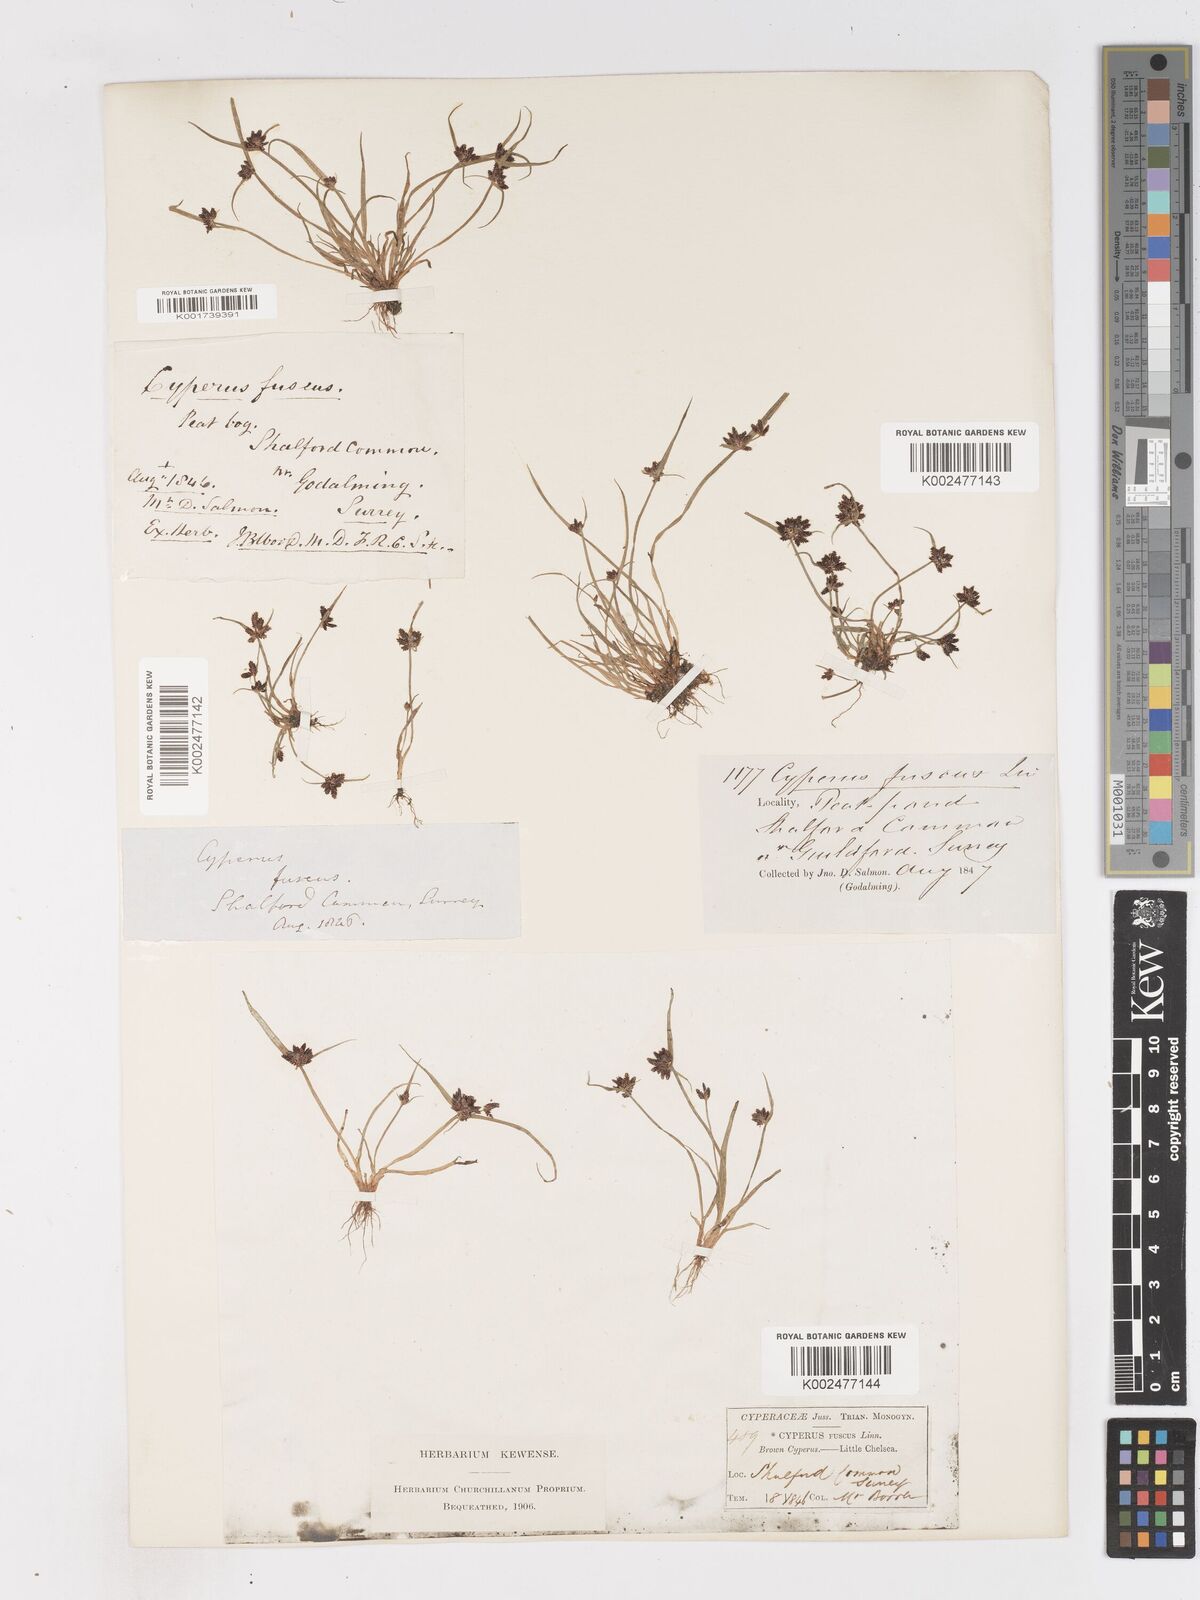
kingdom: Plantae
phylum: Tracheophyta
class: Liliopsida
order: Poales
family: Cyperaceae
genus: Cyperus
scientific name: Cyperus fuscus
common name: Brown galingale
